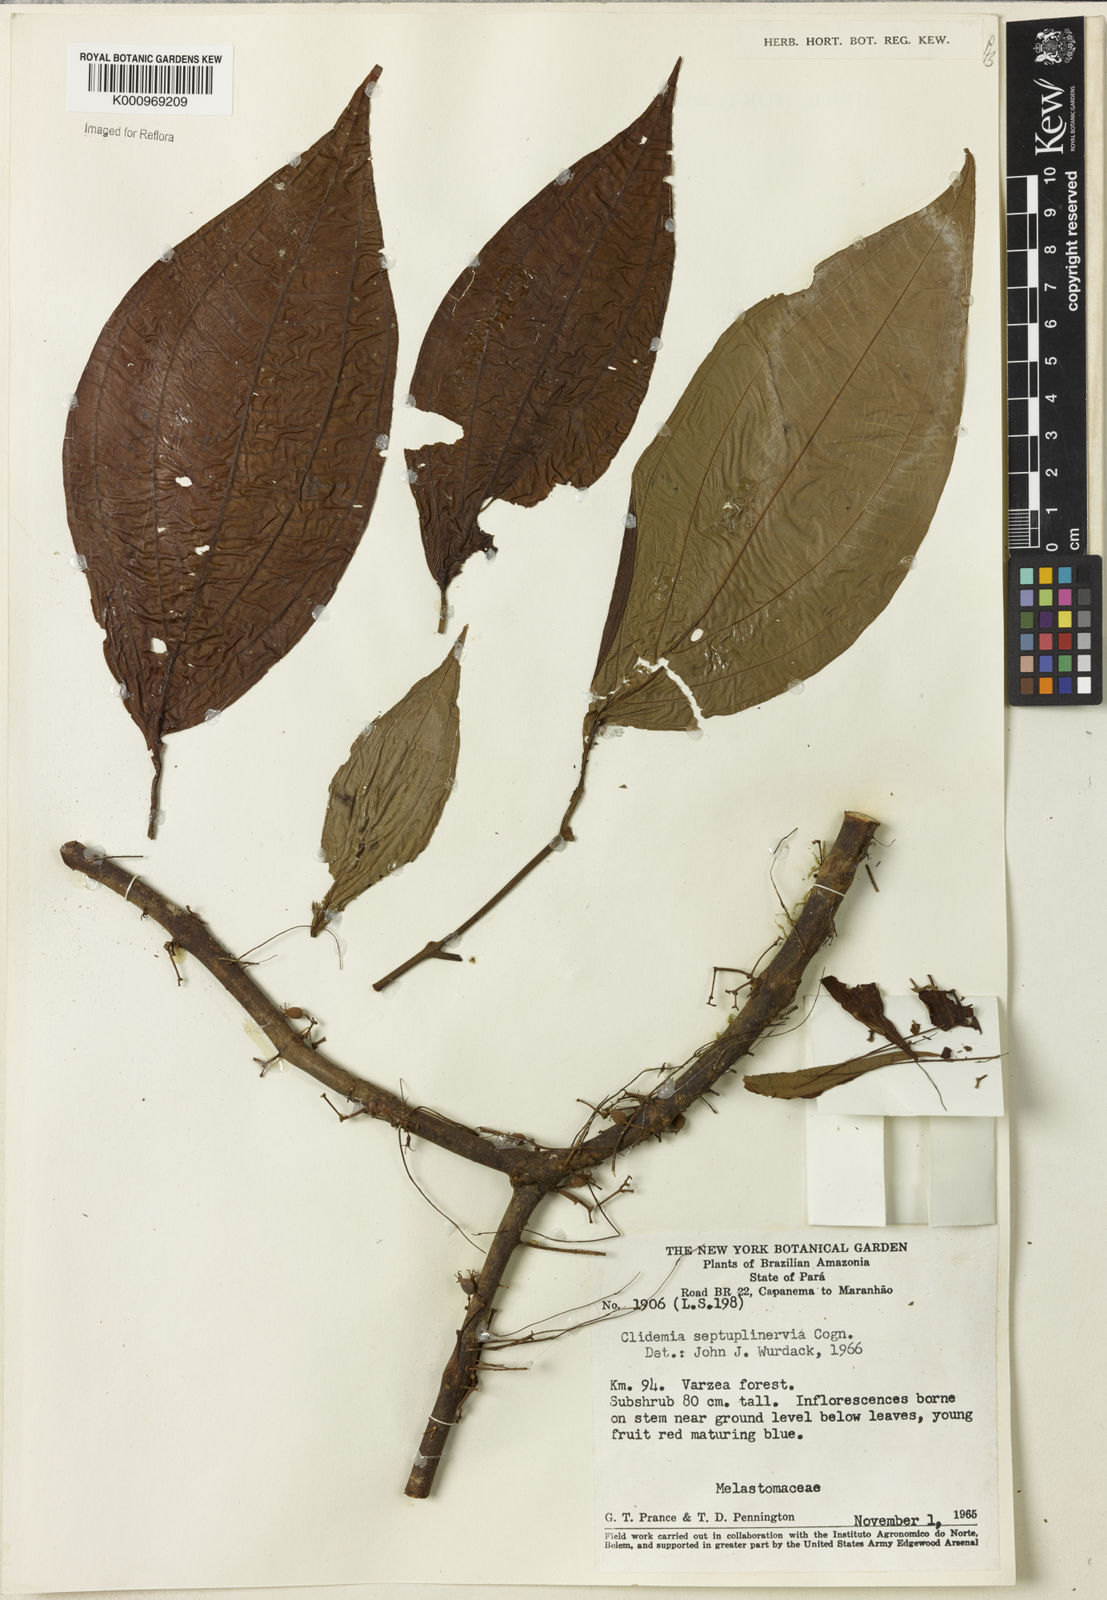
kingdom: Plantae
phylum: Tracheophyta
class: Magnoliopsida
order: Myrtales
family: Melastomataceae
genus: Miconia
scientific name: Miconia trichocalyx
